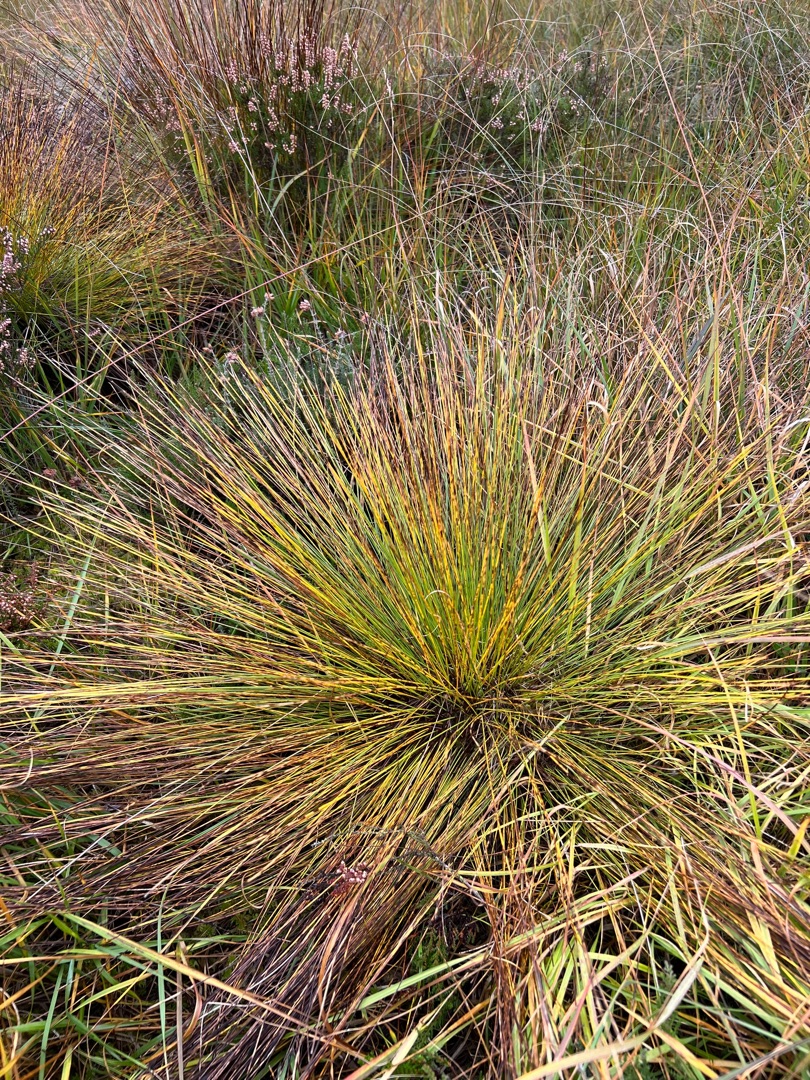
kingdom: Plantae
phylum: Tracheophyta
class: Liliopsida
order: Poales
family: Cyperaceae
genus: Trichophorum
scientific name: Trichophorum cespitosum
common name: Tuekogleaks
